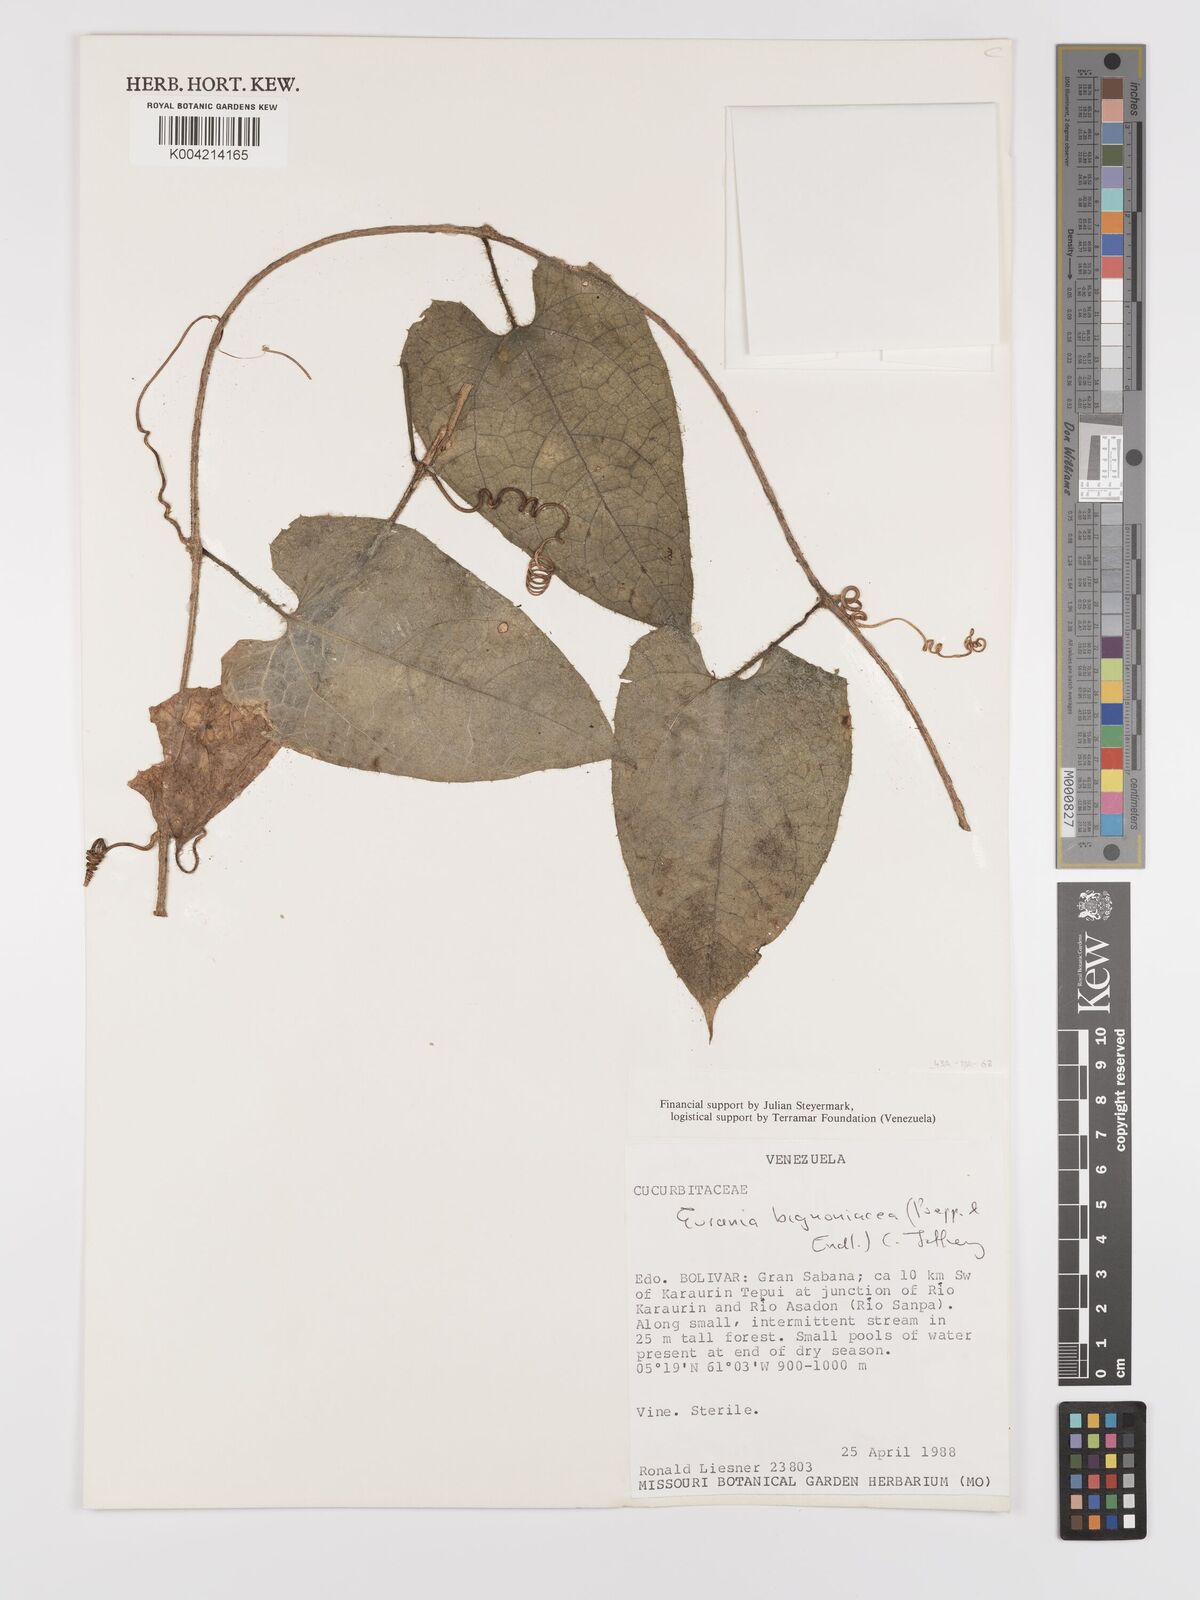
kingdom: Plantae
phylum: Tracheophyta
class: Magnoliopsida
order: Cucurbitales
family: Cucurbitaceae
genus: Gurania
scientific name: Gurania bignoniacea
